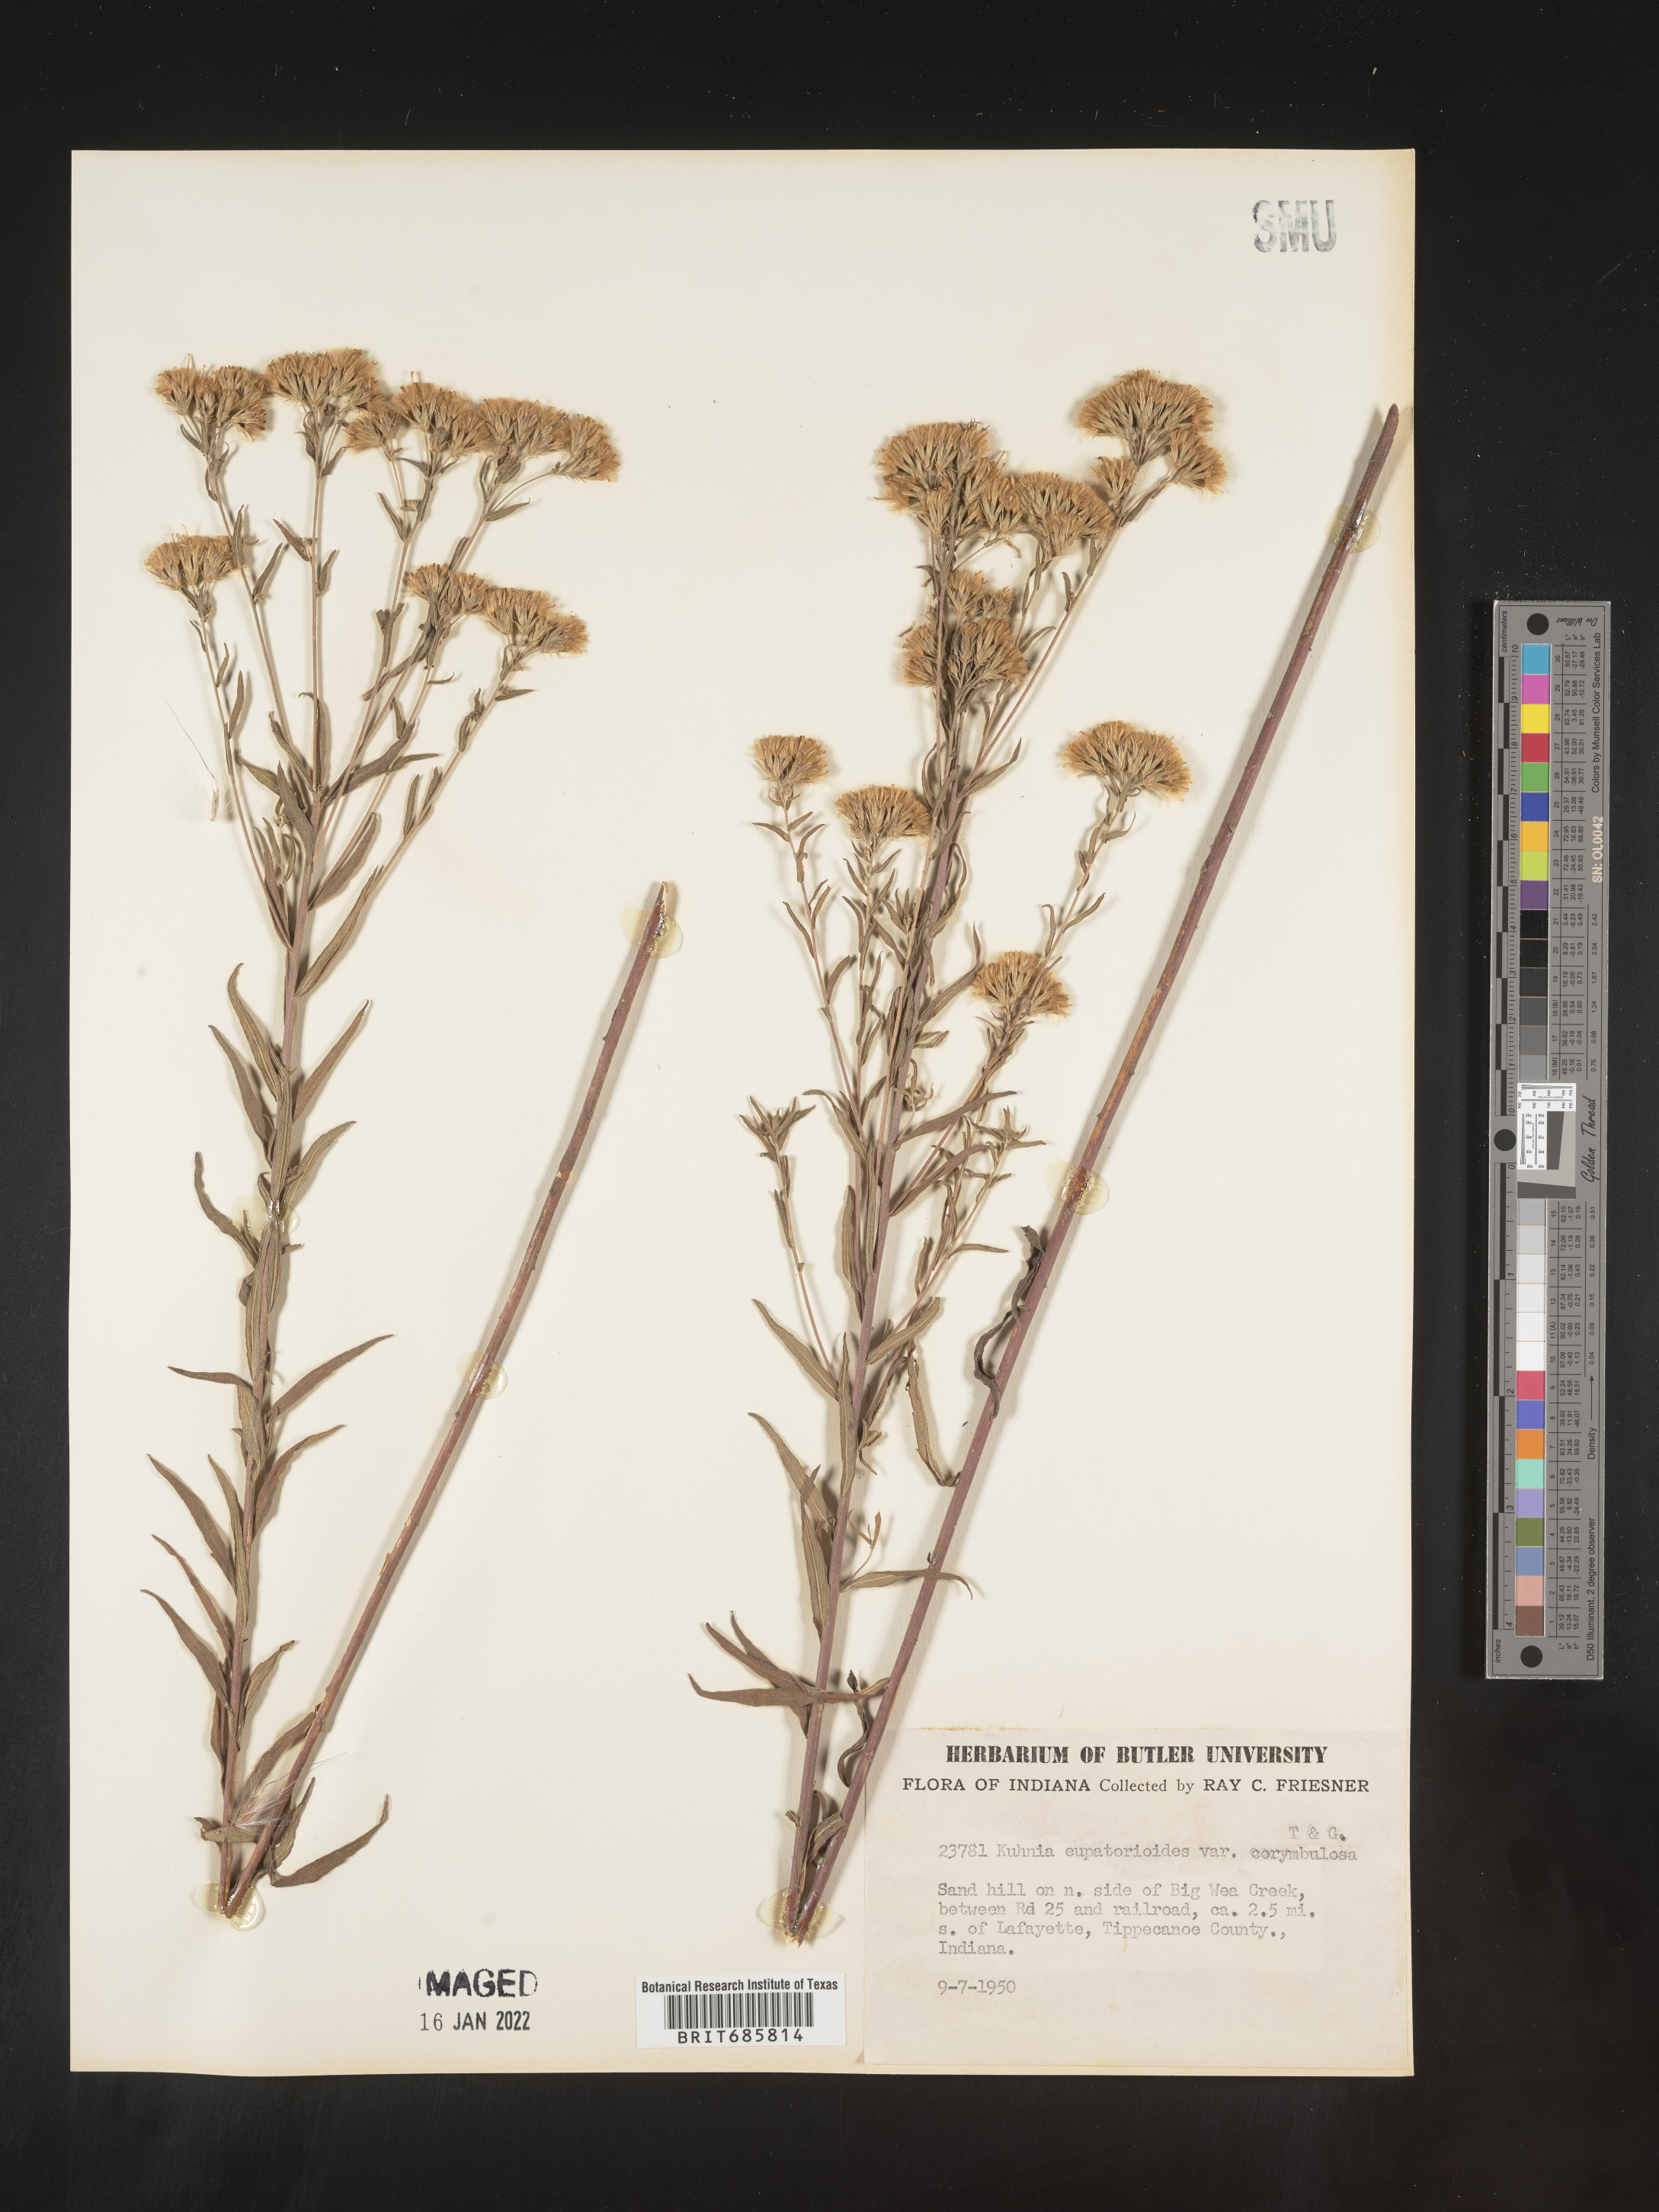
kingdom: Plantae
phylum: Tracheophyta
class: Magnoliopsida
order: Asterales
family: Asteraceae
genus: Brickellia
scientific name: Brickellia eupatorioides
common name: False boneset
